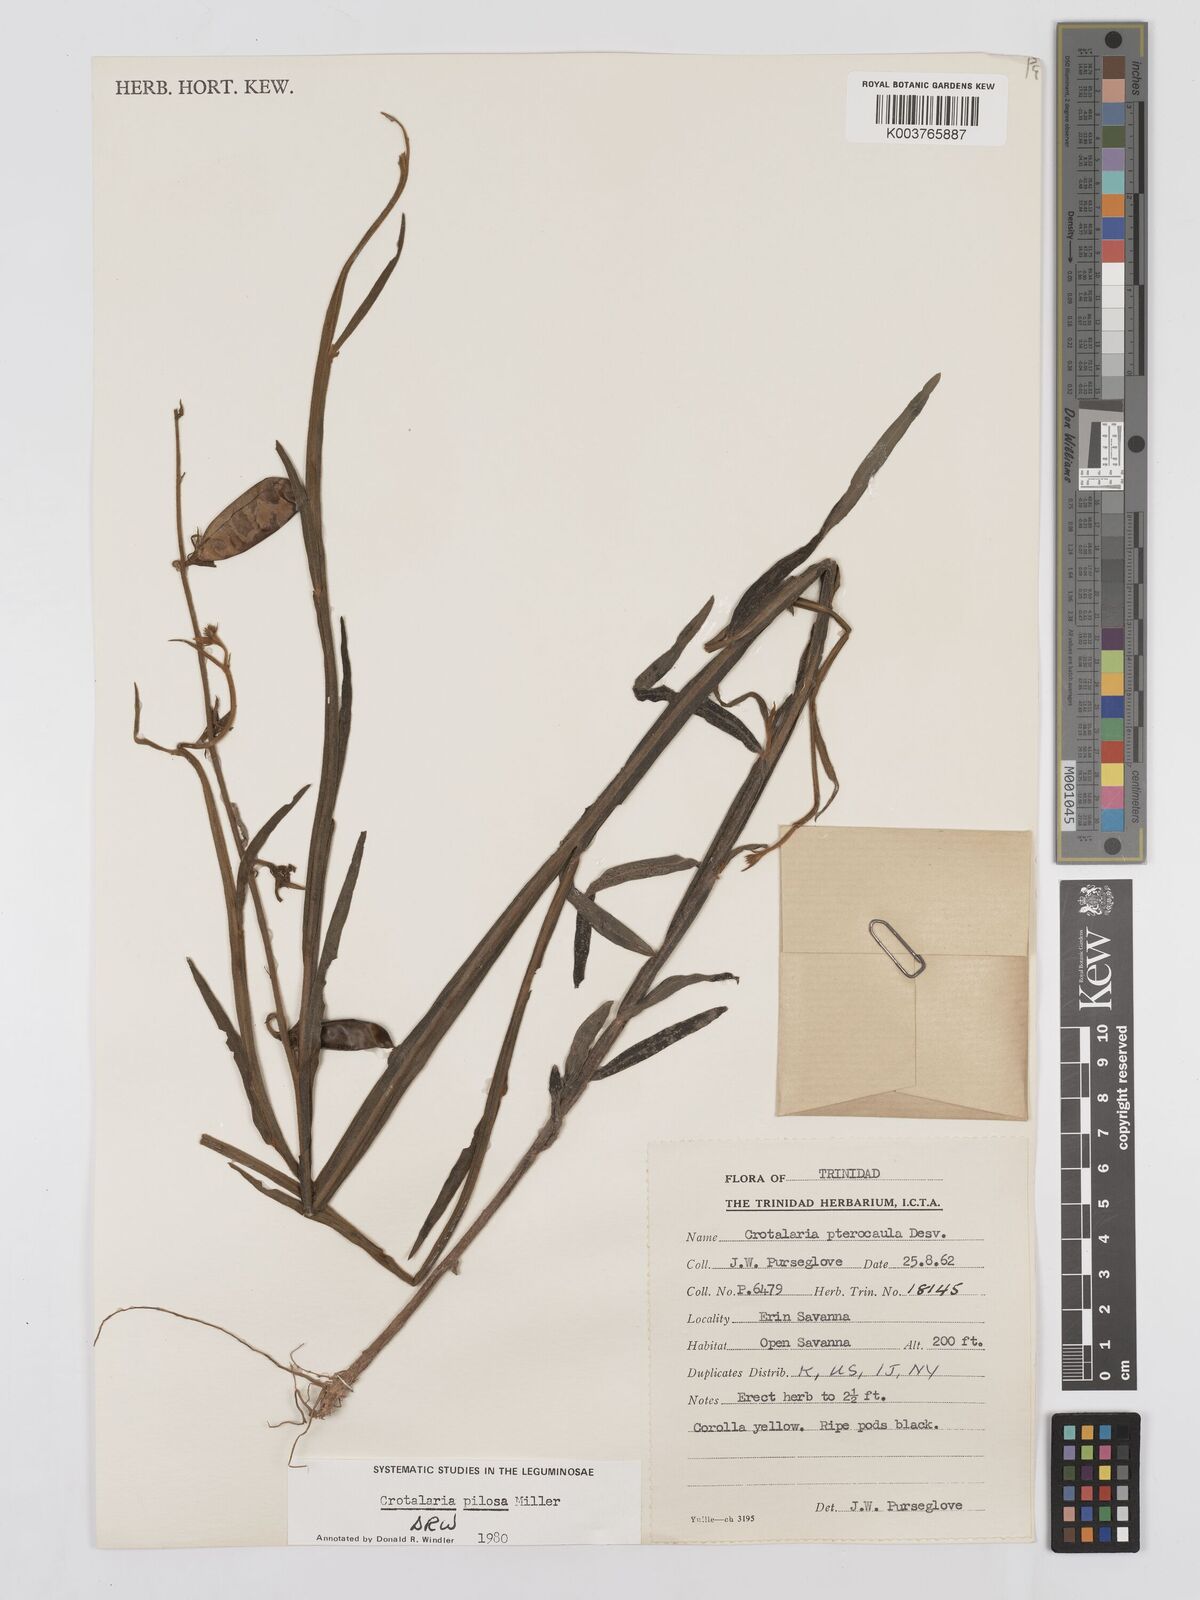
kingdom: Plantae
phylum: Tracheophyta
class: Magnoliopsida
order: Fabales
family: Fabaceae
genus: Crotalaria
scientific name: Crotalaria pilosa
